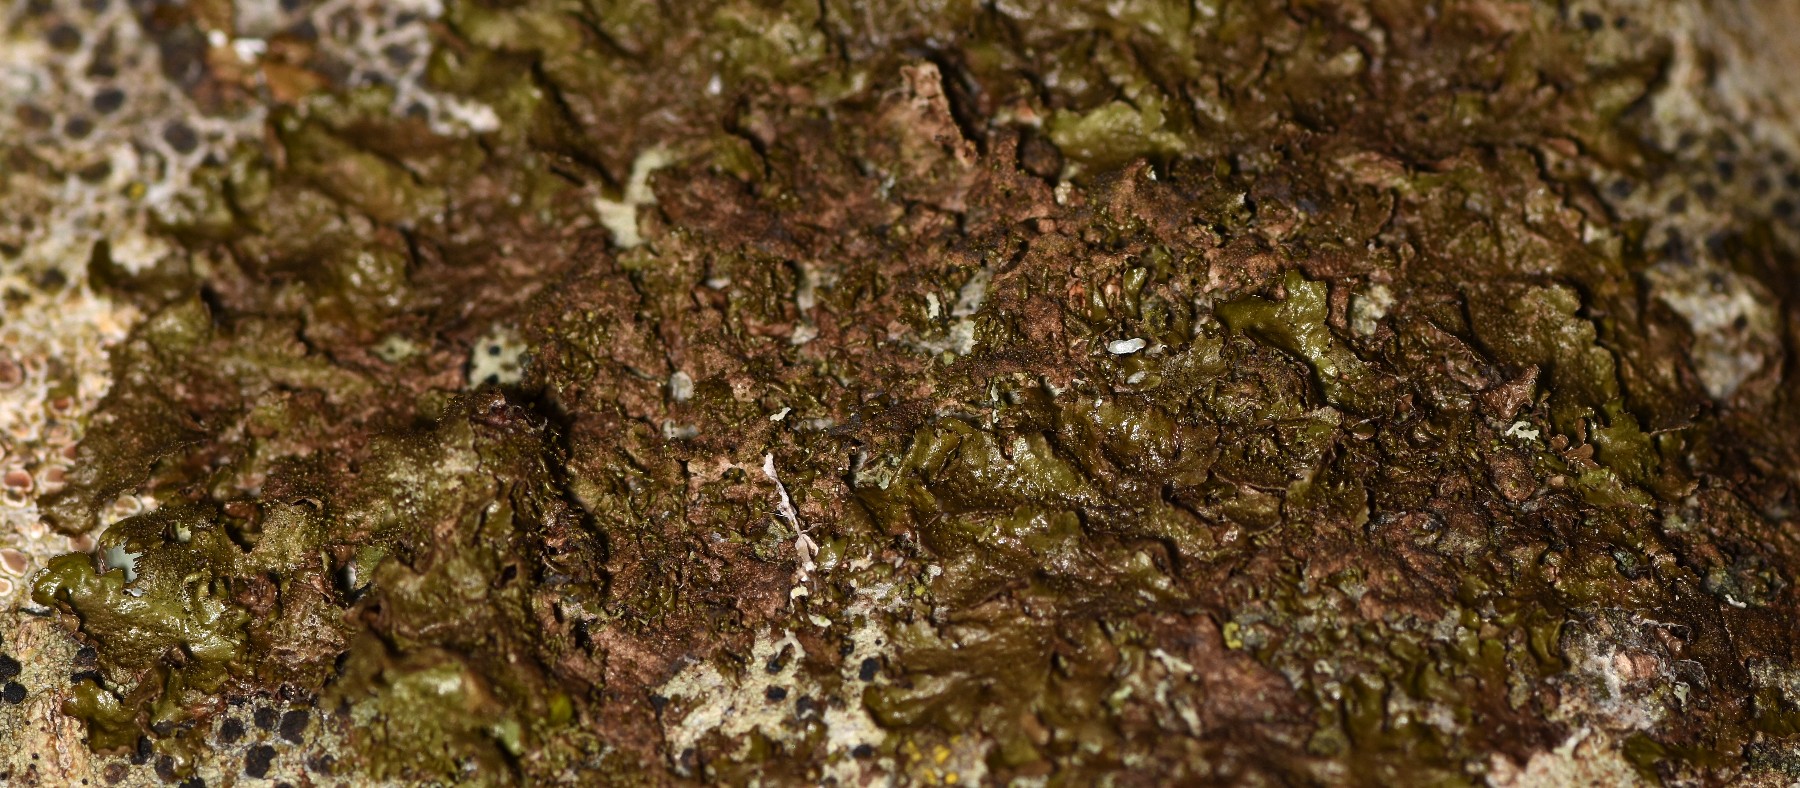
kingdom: Fungi
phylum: Ascomycota
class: Lecanoromycetes
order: Lecanorales
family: Parmeliaceae
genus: Melanohalea
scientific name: Melanohalea exasperatula
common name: kølle-skållav
